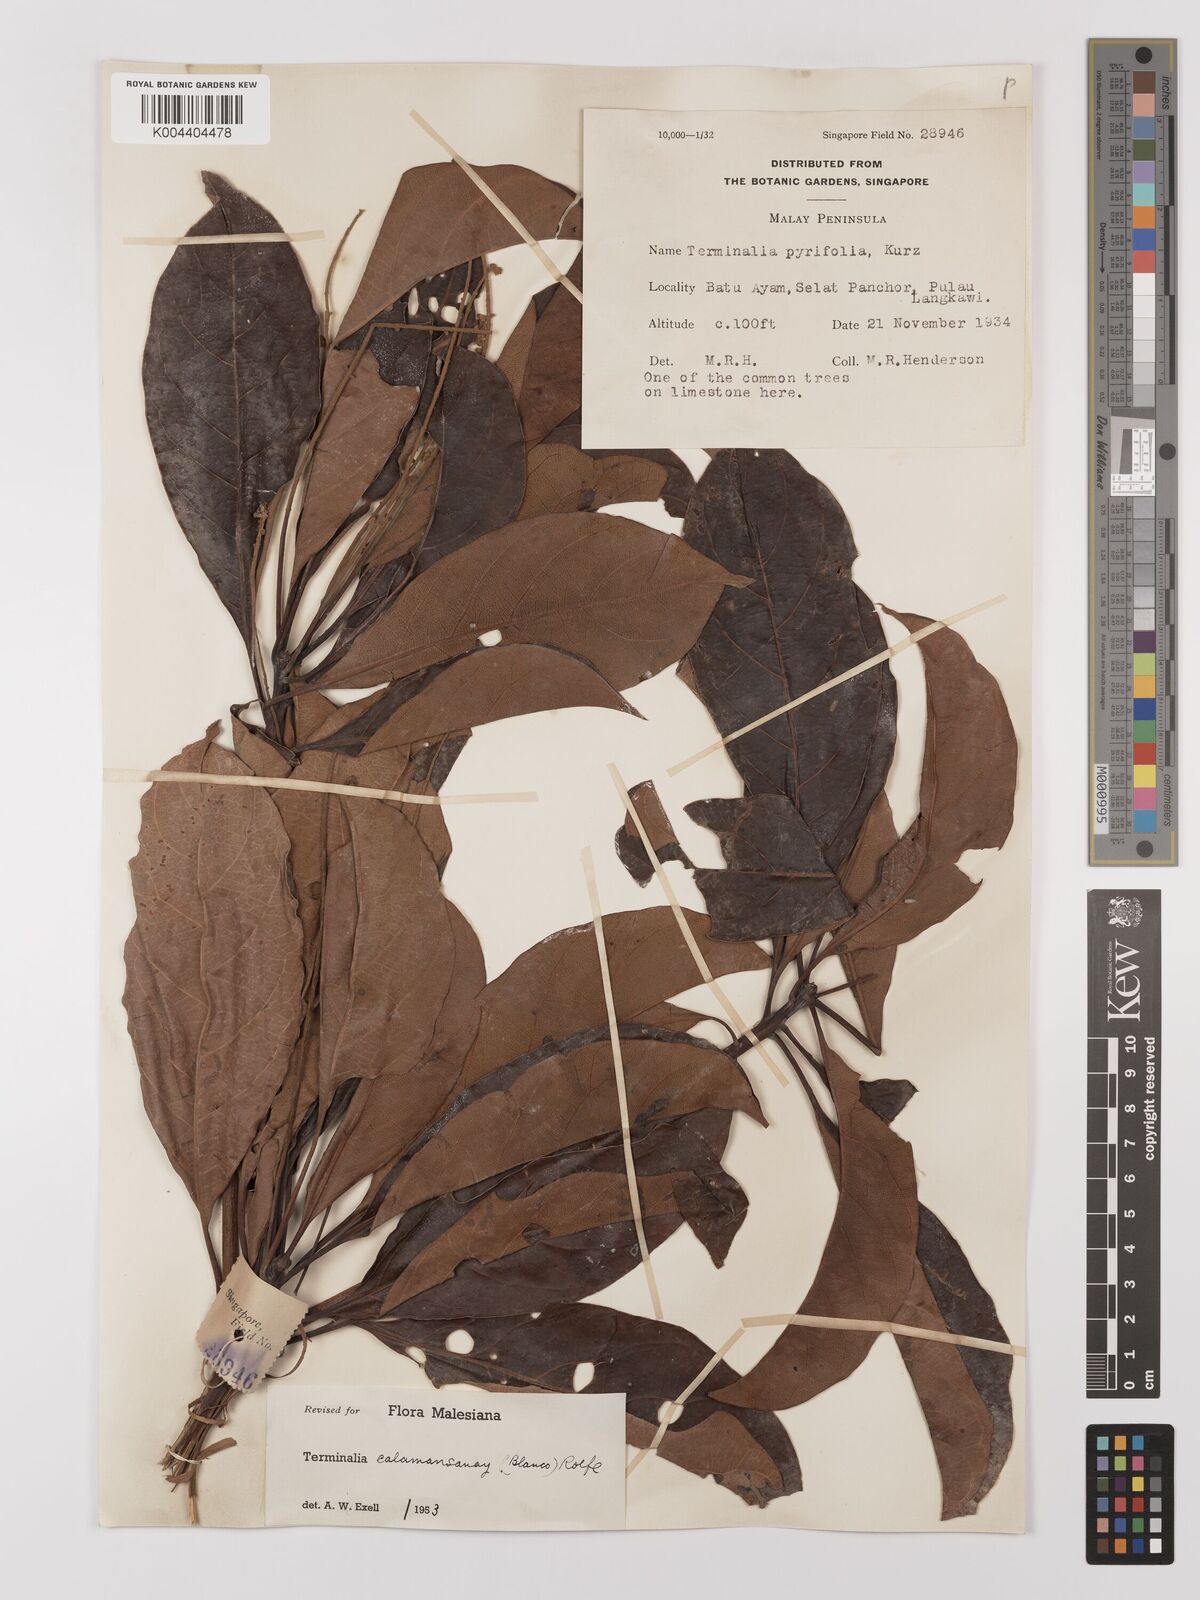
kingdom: Plantae
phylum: Tracheophyta
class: Magnoliopsida
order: Myrtales
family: Combretaceae
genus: Terminalia
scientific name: Terminalia calamansanai
